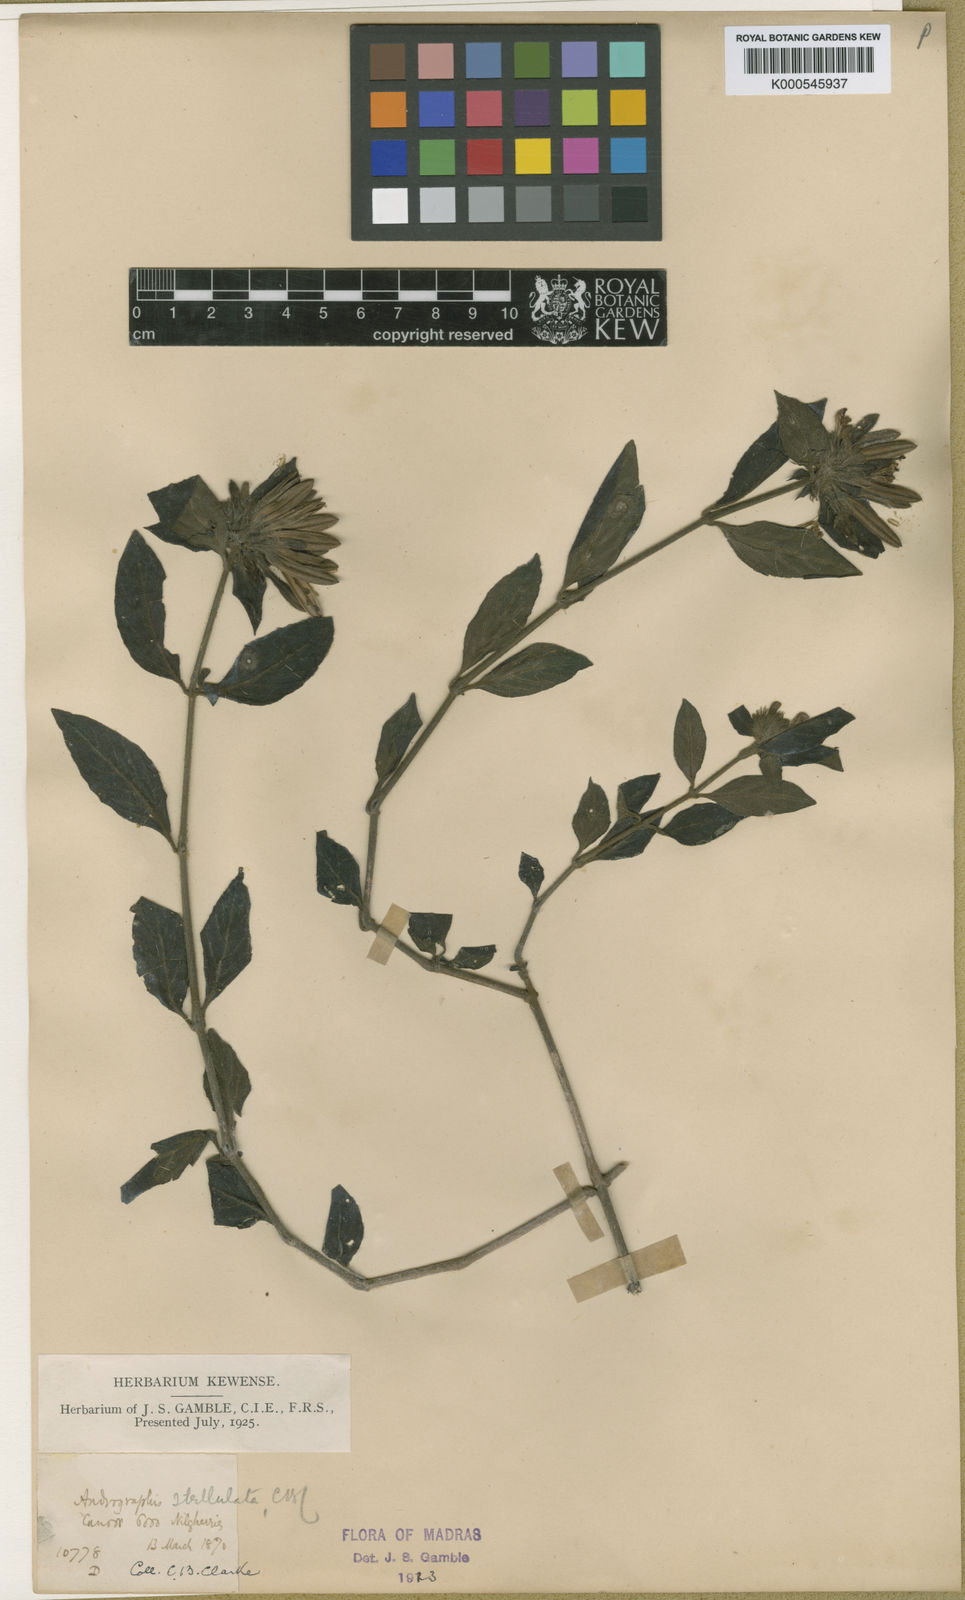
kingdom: Plantae
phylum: Tracheophyta
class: Magnoliopsida
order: Lamiales
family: Acanthaceae
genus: Andrographis
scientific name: Andrographis stellulata
